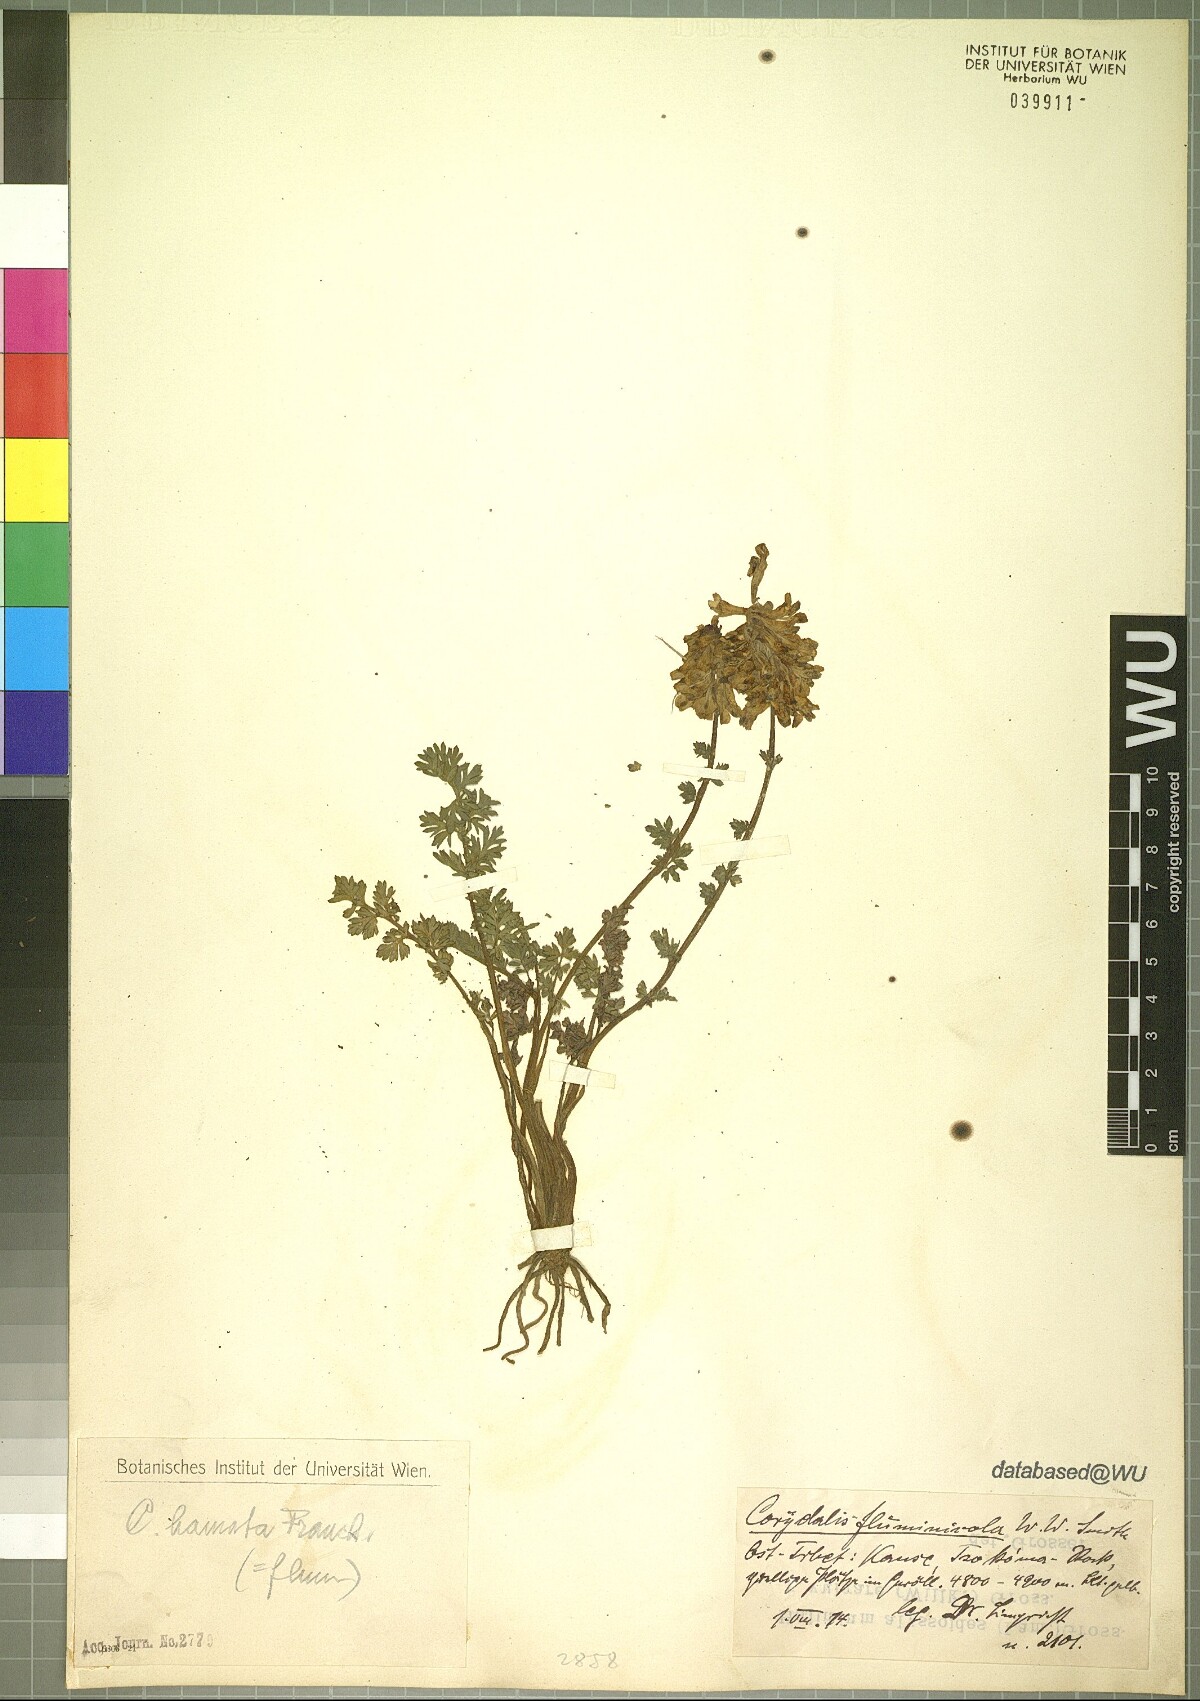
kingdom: Plantae
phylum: Tracheophyta
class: Magnoliopsida
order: Ranunculales
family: Papaveraceae
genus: Corydalis
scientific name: Corydalis hamata
